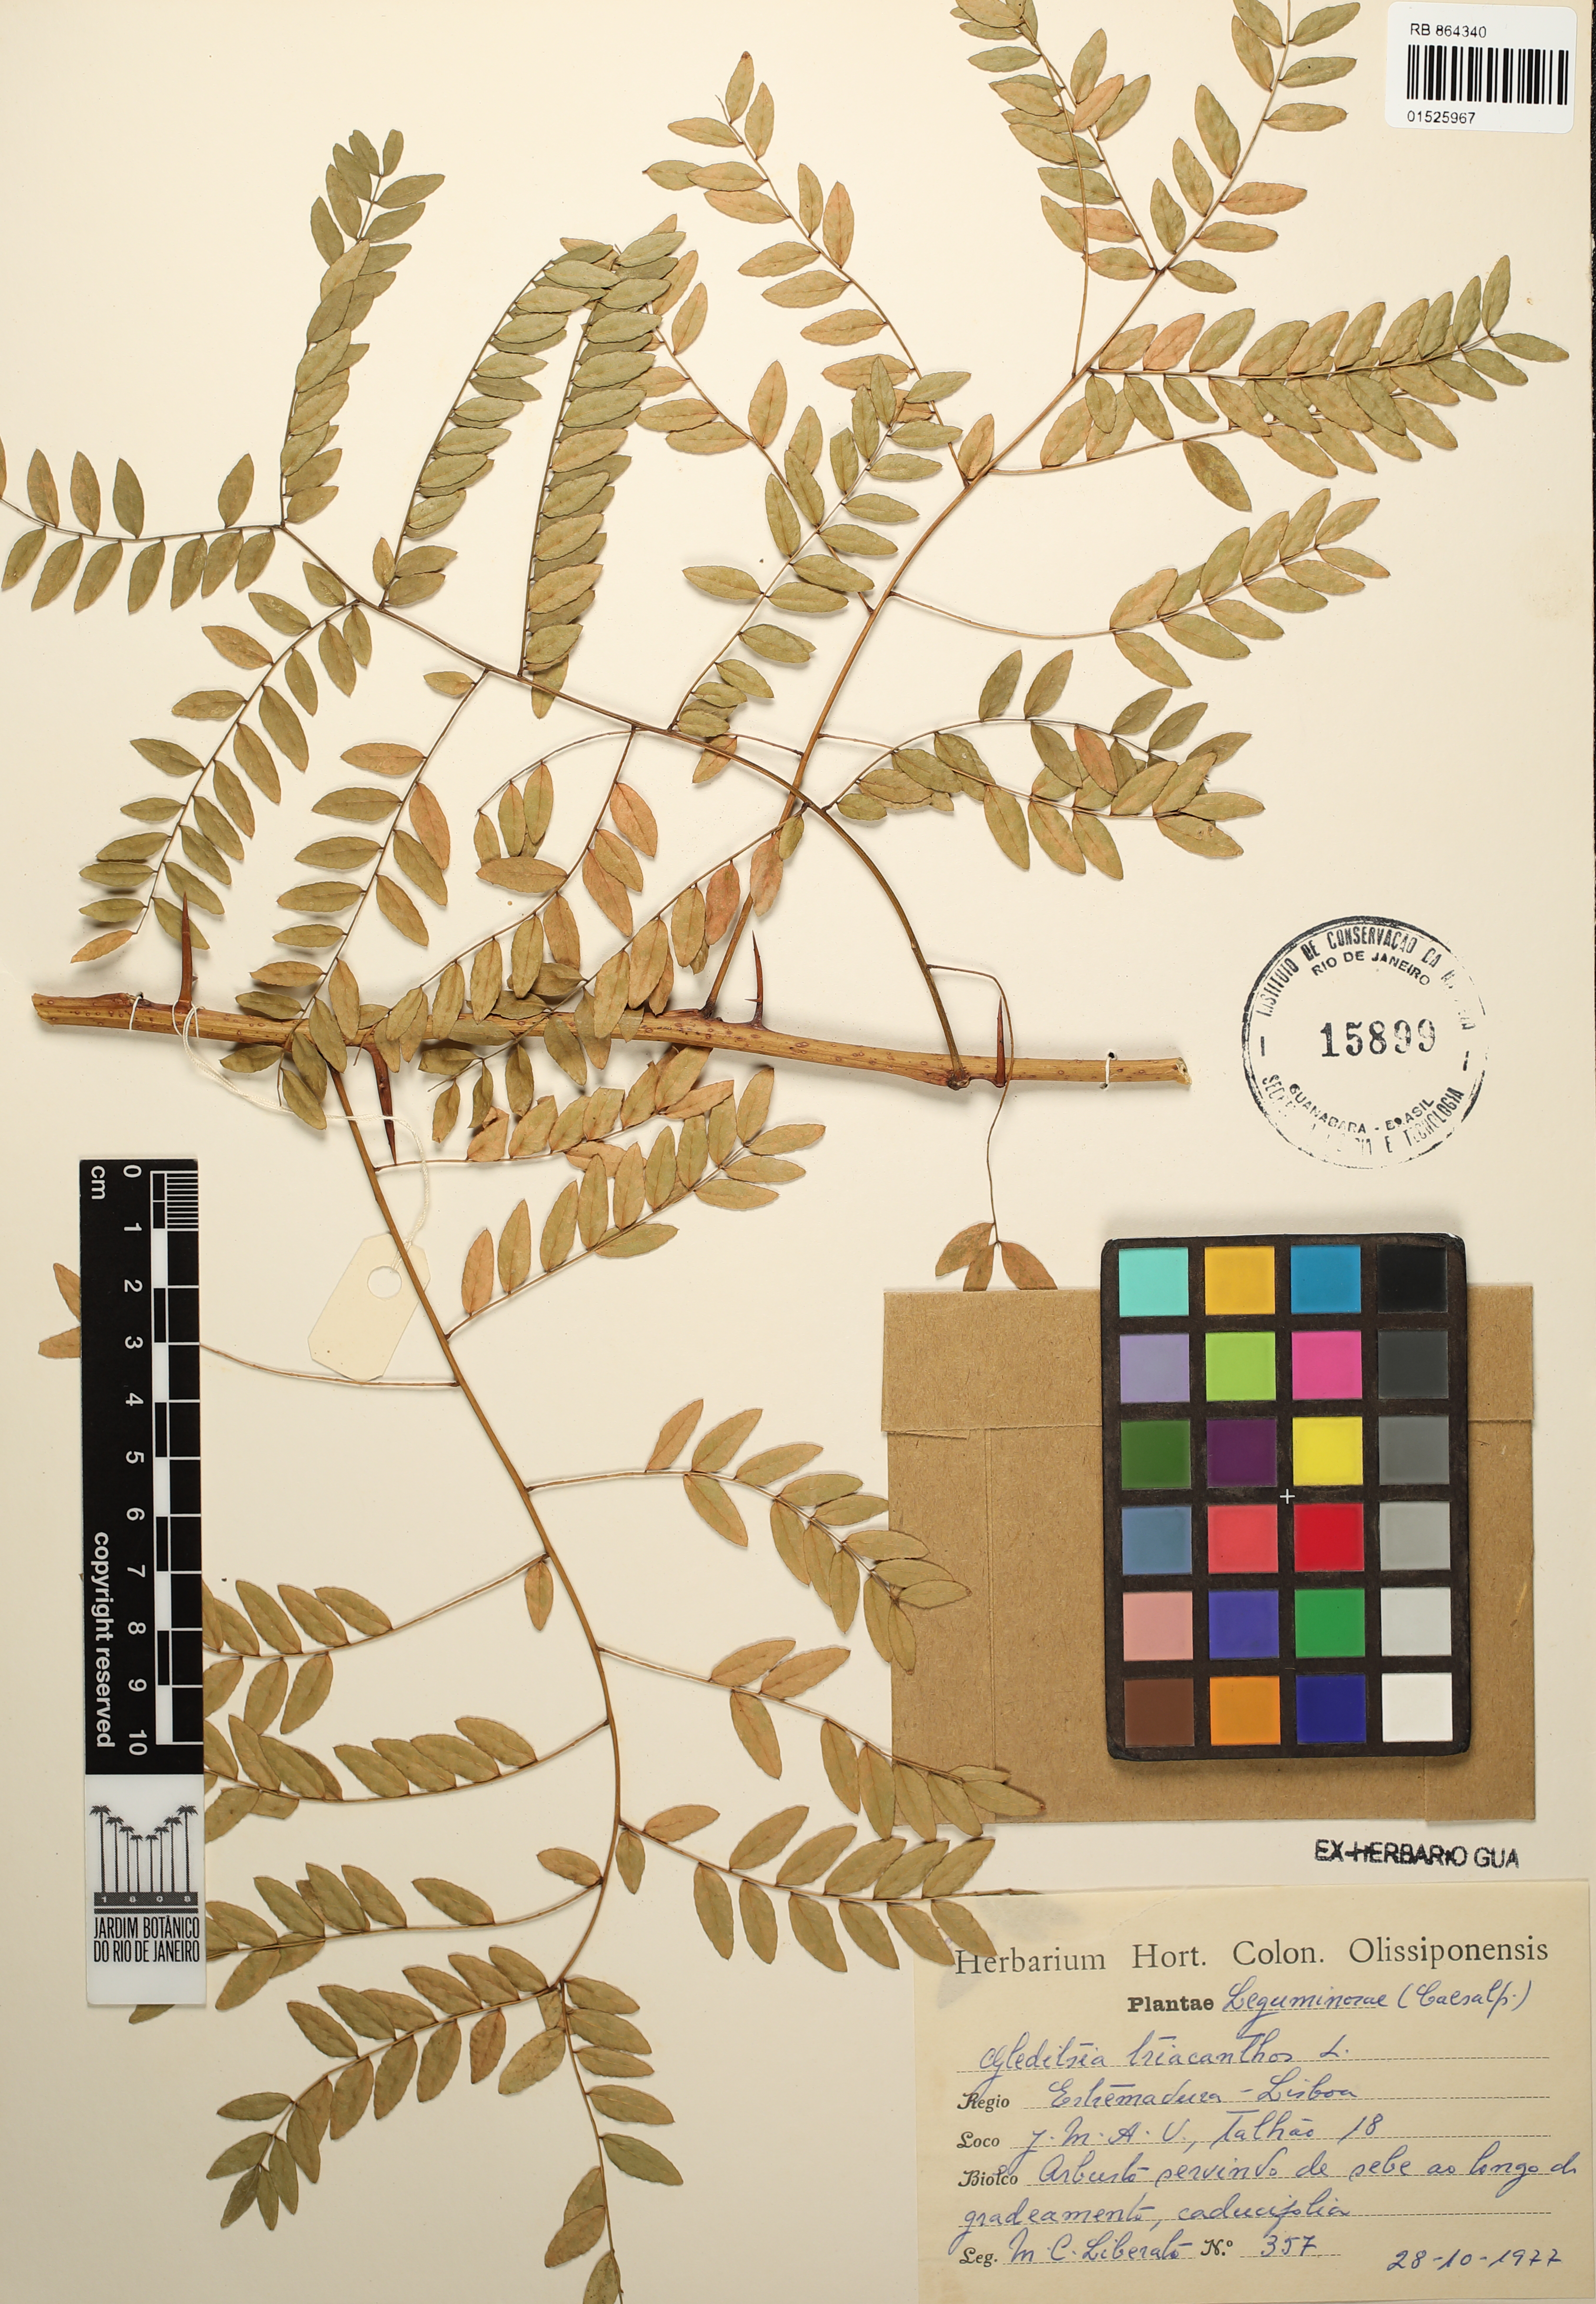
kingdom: Plantae
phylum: Tracheophyta
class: Magnoliopsida
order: Fabales
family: Fabaceae
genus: Gleditsia
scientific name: Gleditsia triacanthos
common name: Common honeylocust
